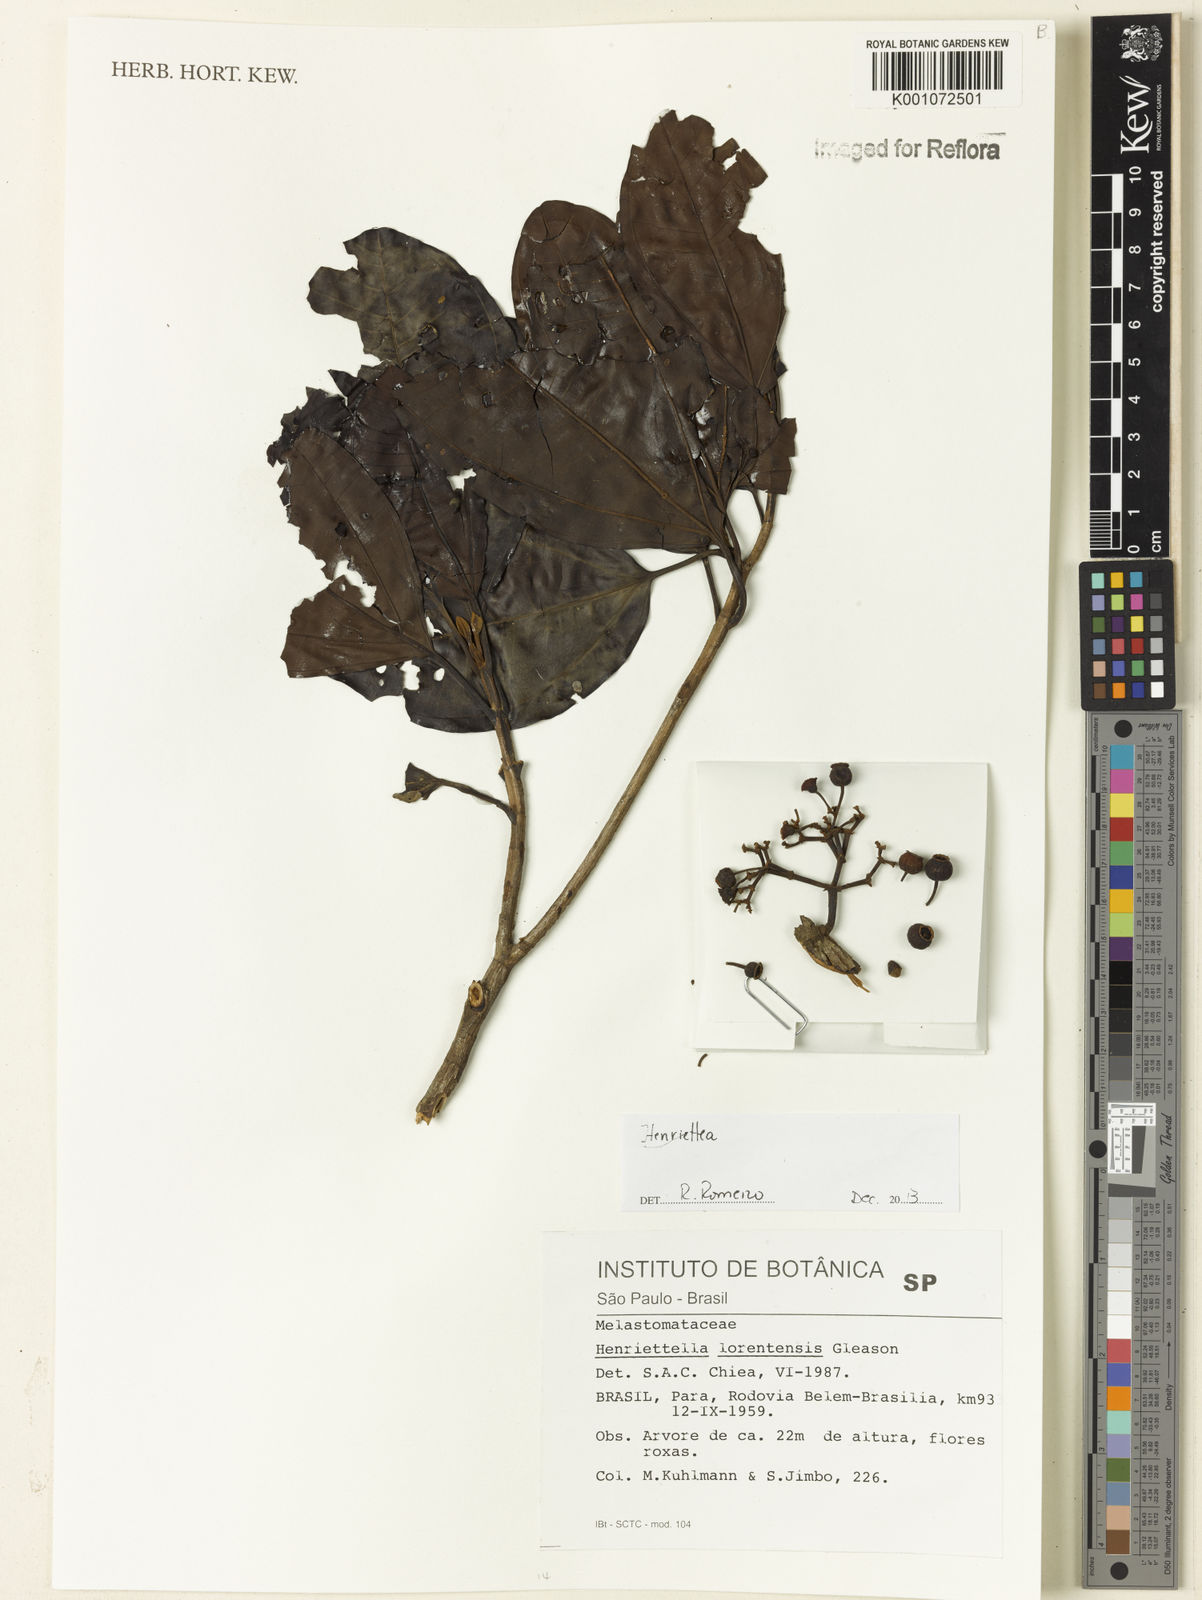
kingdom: Plantae
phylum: Tracheophyta
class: Magnoliopsida
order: Myrtales
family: Melastomataceae
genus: Henriettea
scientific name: Henriettea
